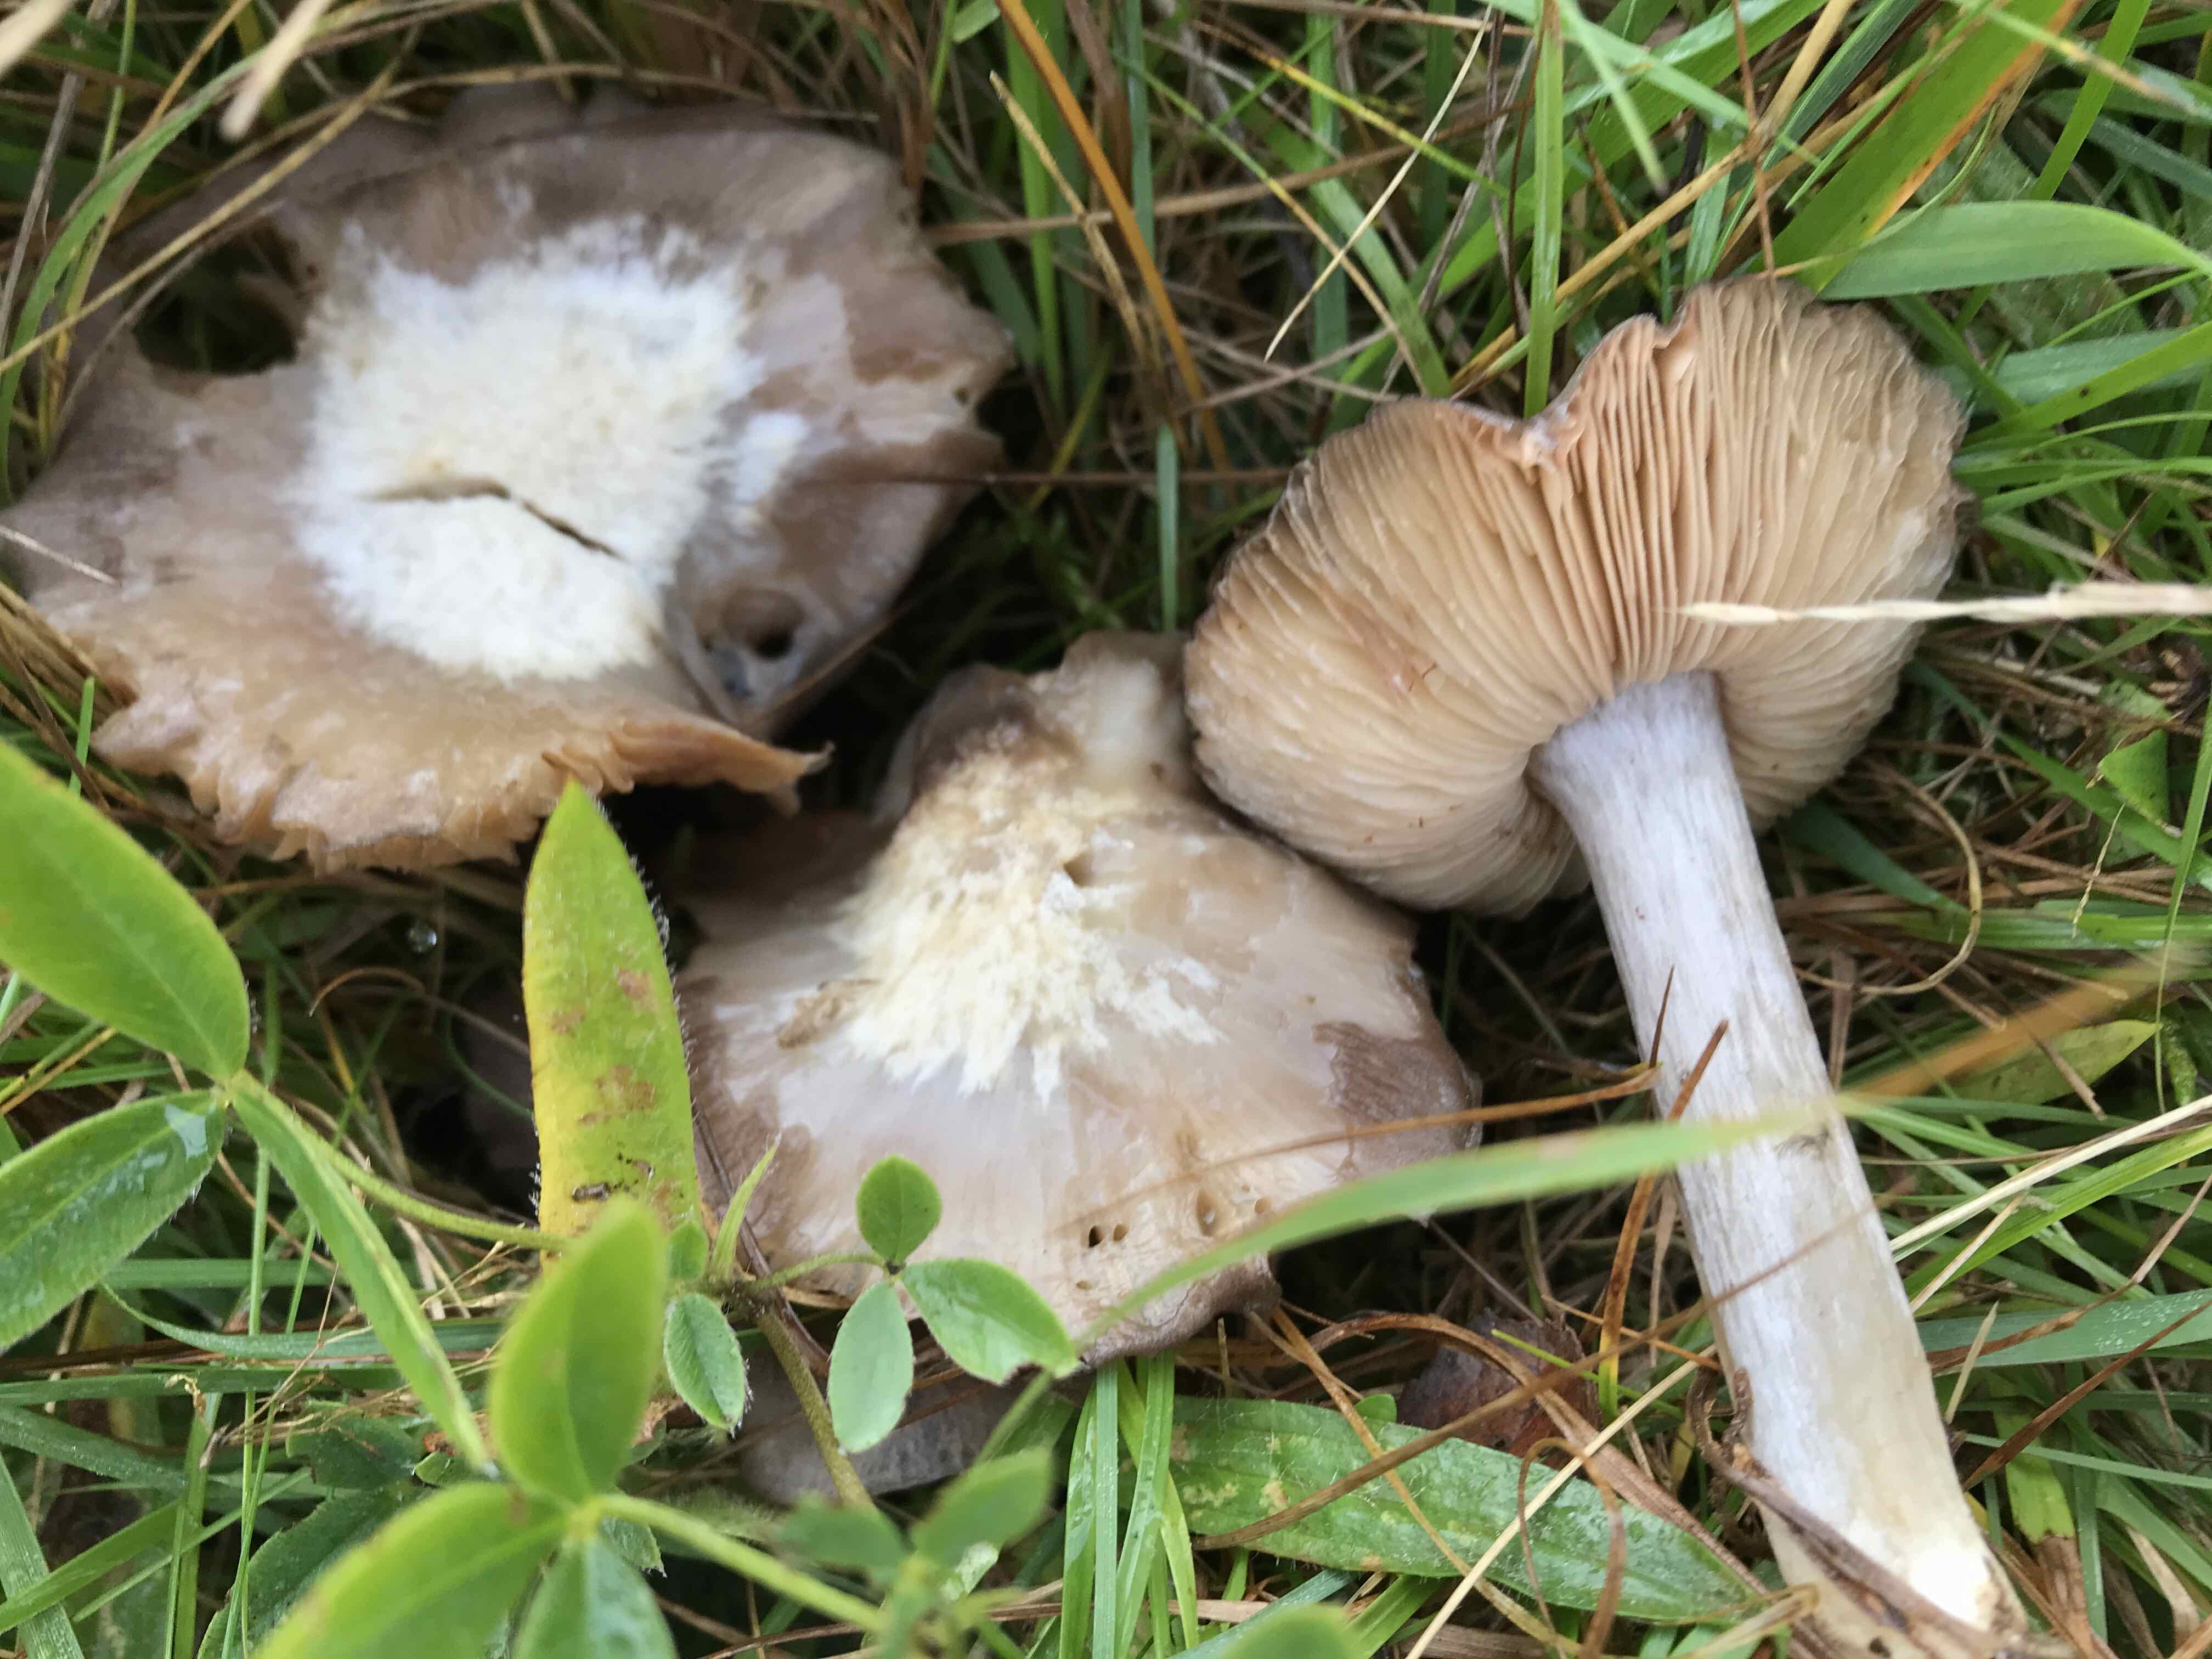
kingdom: Fungi
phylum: Basidiomycota
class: Agaricomycetes
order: Agaricales
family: Entolomataceae
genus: Entoloma
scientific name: Entoloma madidum
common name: indigo-rødblad
